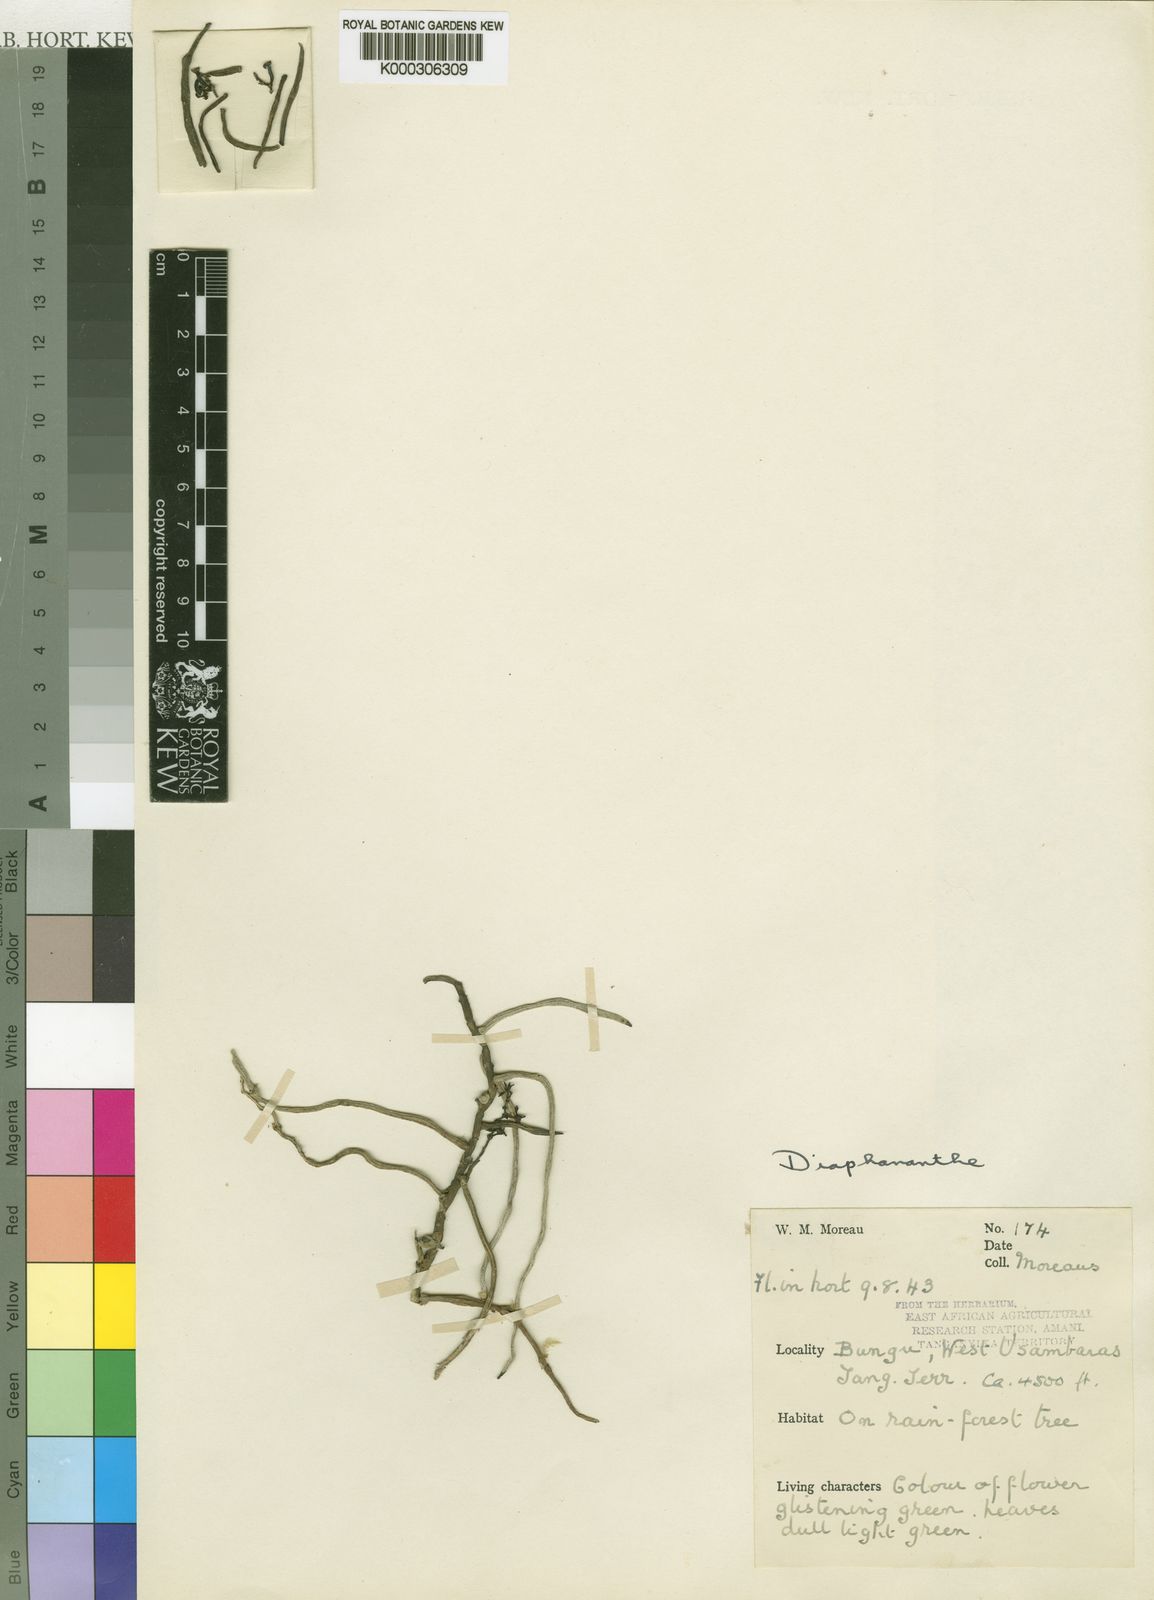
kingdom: Plantae
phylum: Tracheophyta
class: Liliopsida
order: Asparagales
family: Orchidaceae
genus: Rhipidoglossum
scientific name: Rhipidoglossum tanneri
